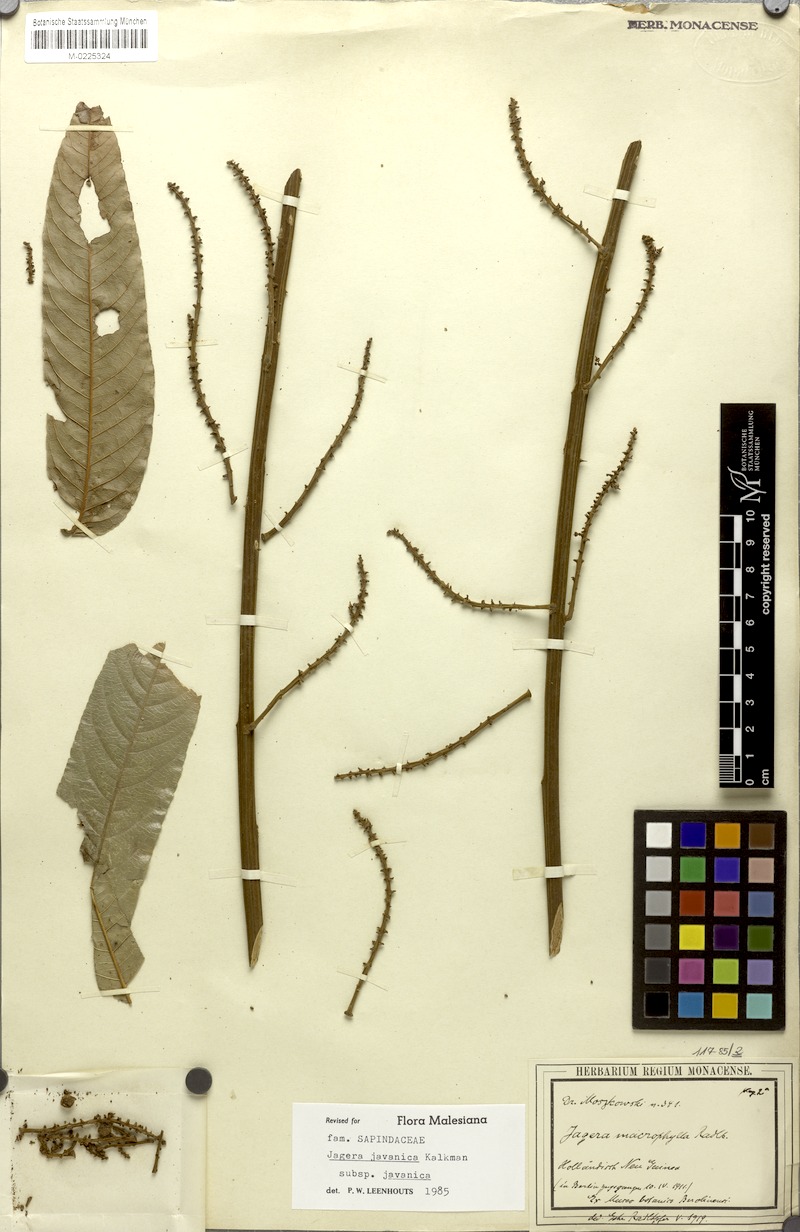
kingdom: Plantae
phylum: Tracheophyta
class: Magnoliopsida
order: Sapindales
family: Sapindaceae
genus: Jagera
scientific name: Jagera javanica
